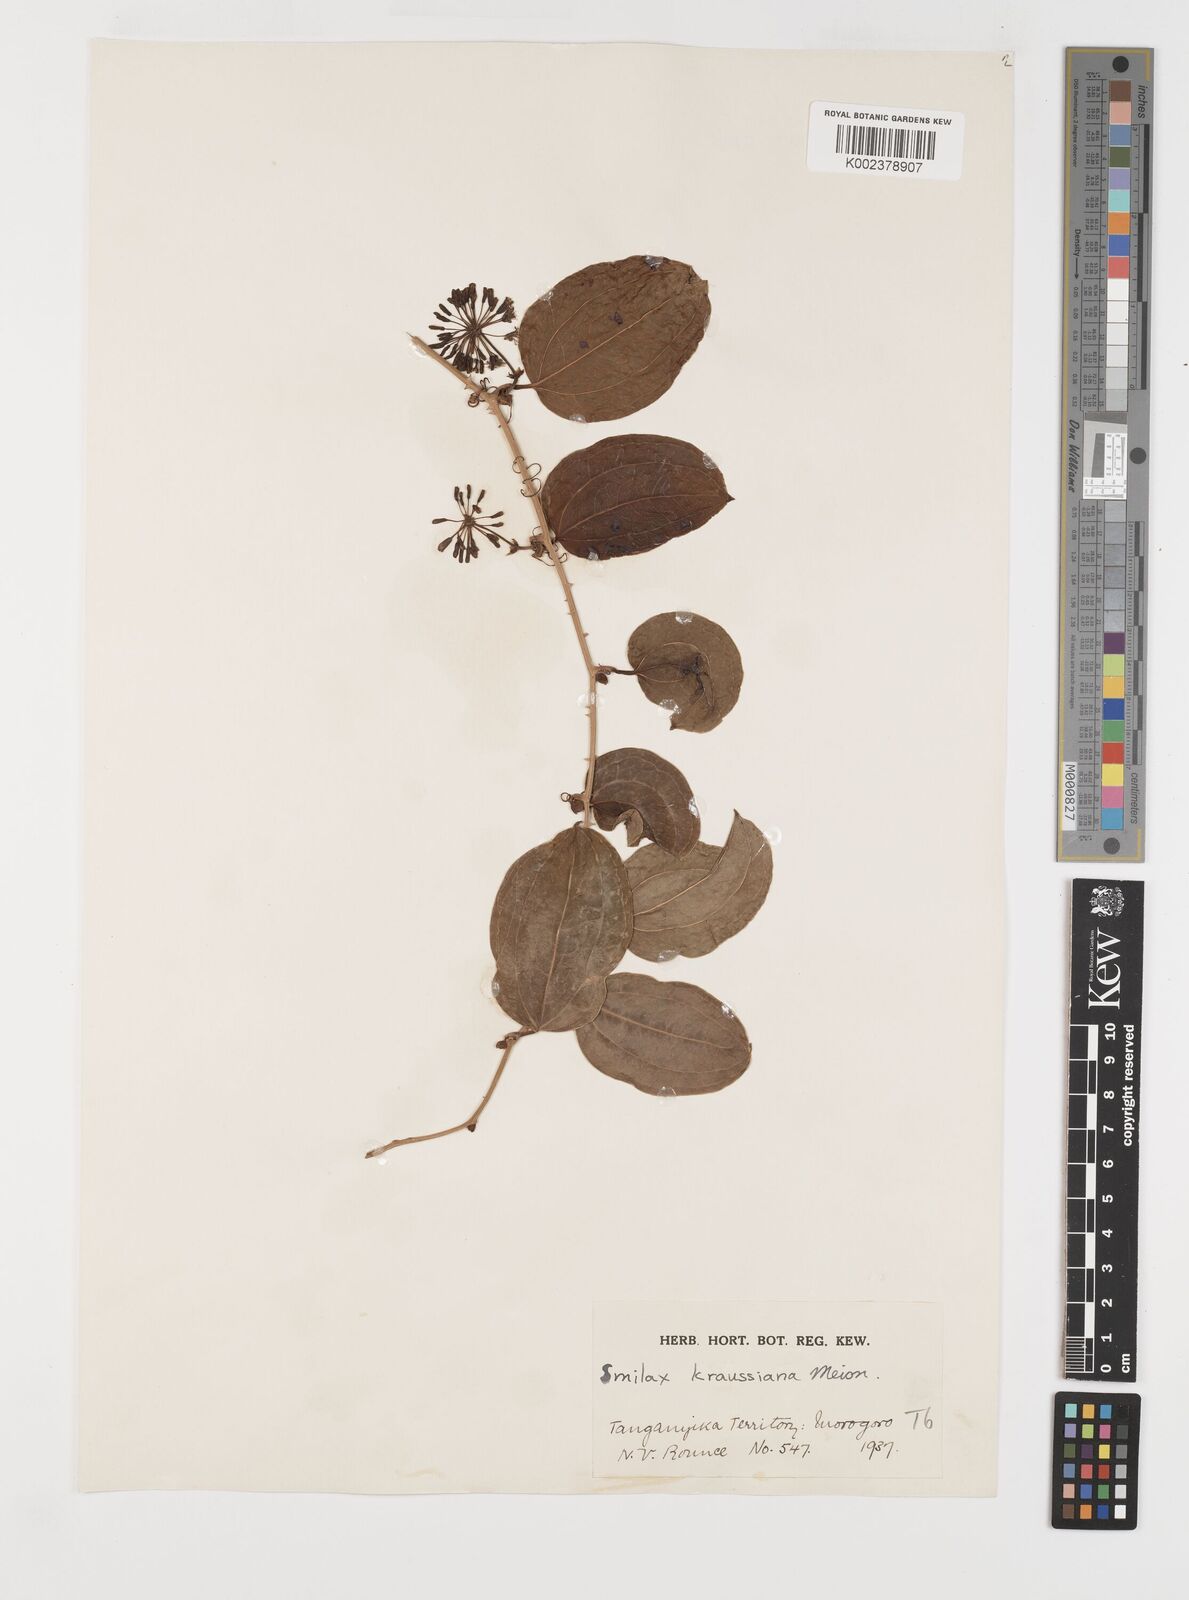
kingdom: Plantae
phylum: Tracheophyta
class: Liliopsida
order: Liliales
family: Smilacaceae
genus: Smilax
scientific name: Smilax anceps
